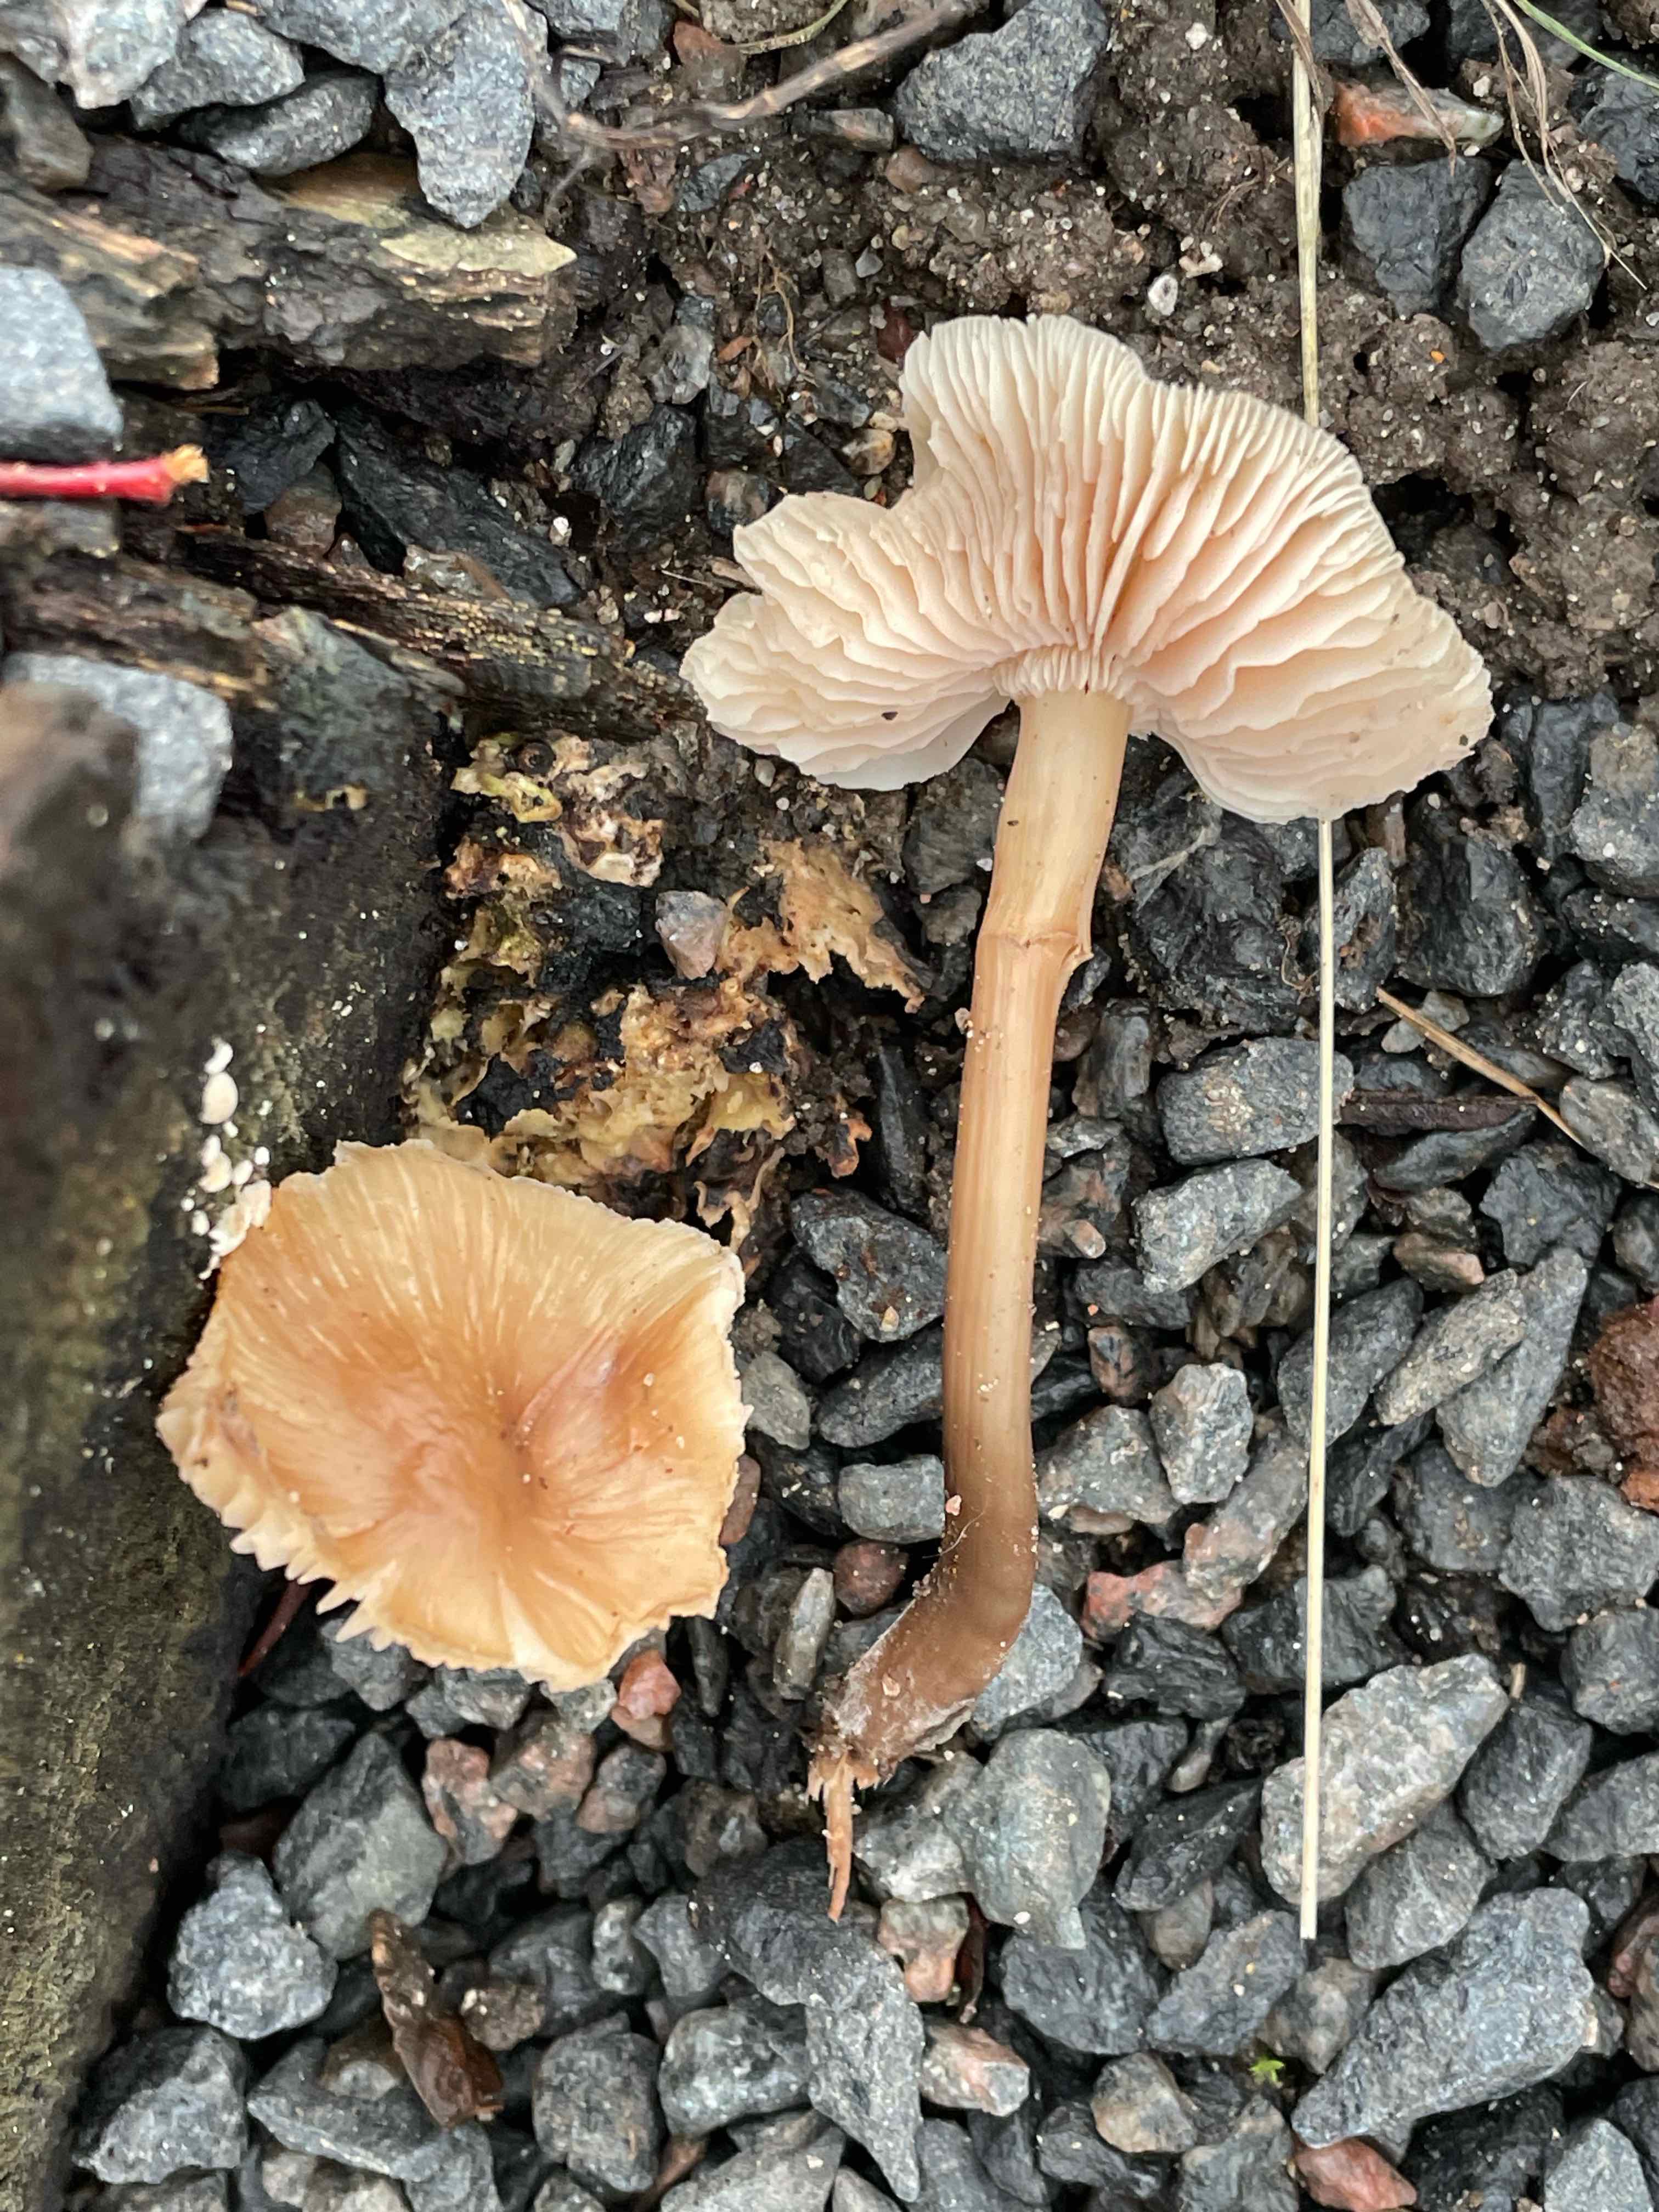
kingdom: Fungi
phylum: Basidiomycota
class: Agaricomycetes
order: Agaricales
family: Mycenaceae
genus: Mycena
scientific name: Mycena galericulata
